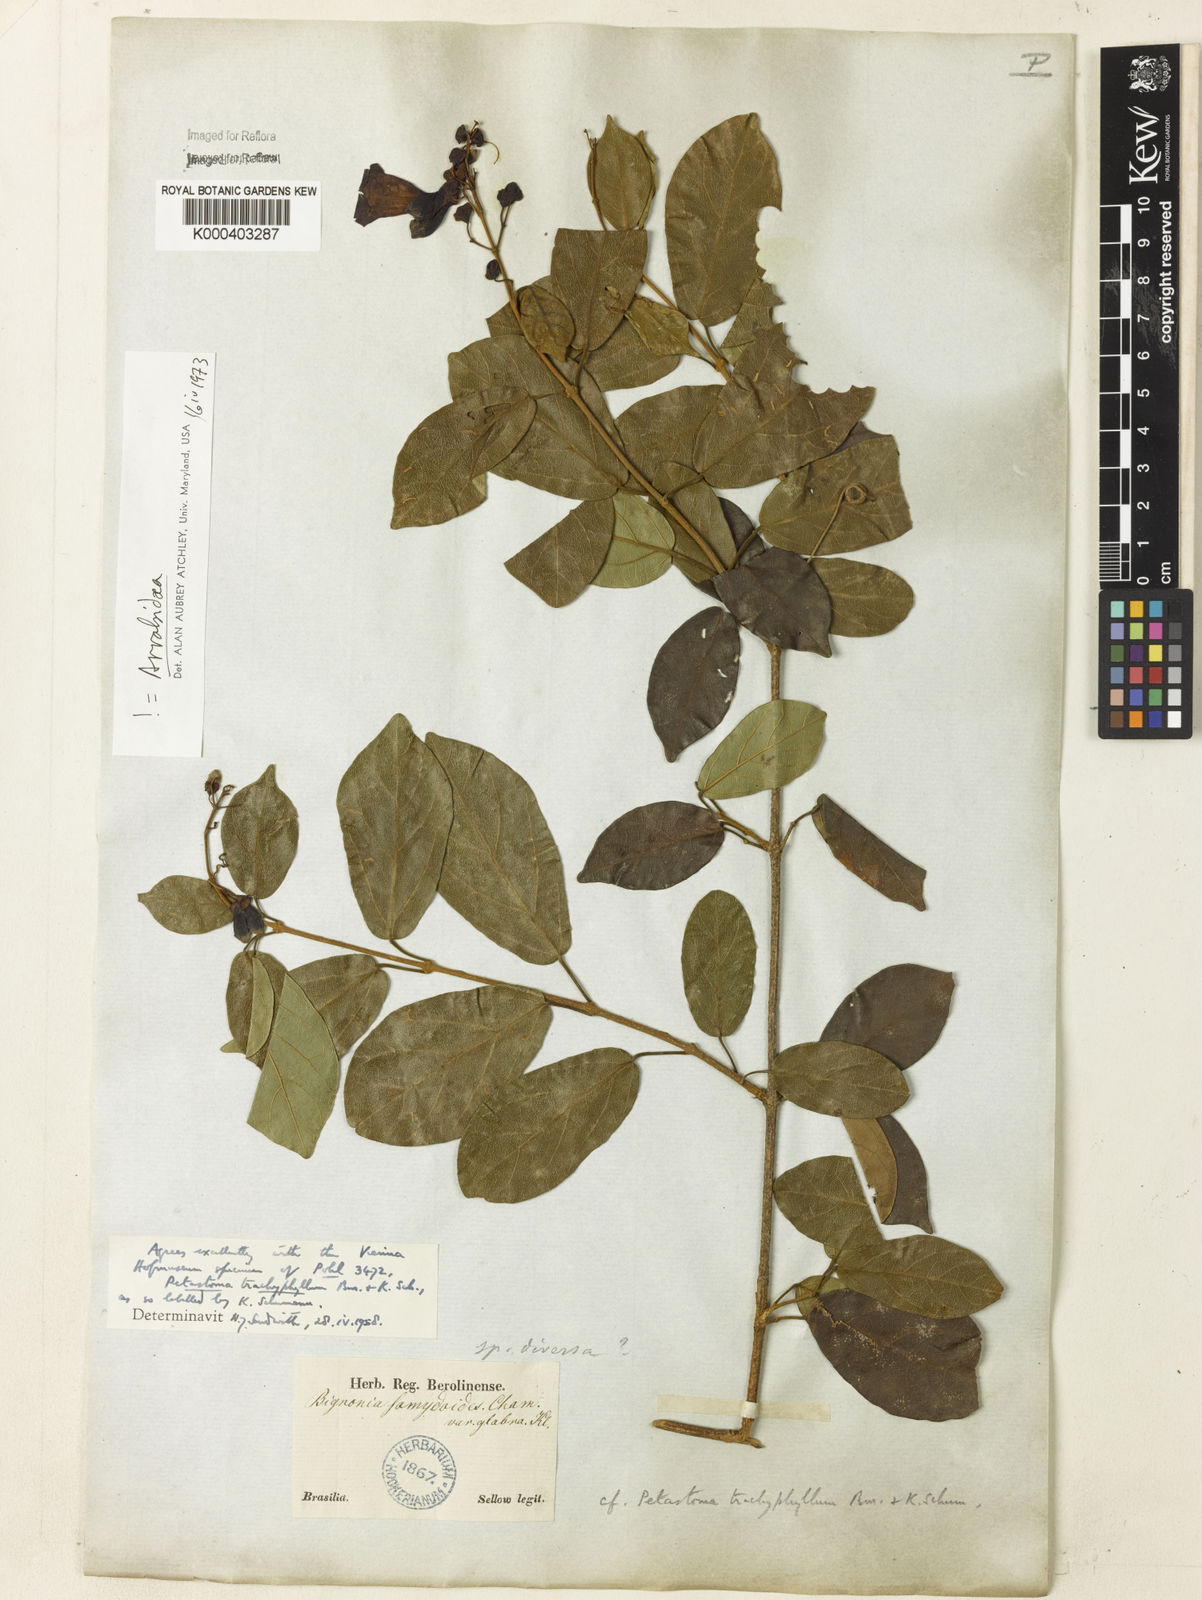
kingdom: Plantae
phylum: Tracheophyta
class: Magnoliopsida
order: Lamiales
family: Bignoniaceae
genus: Fridericia
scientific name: Fridericia trachyphylla
